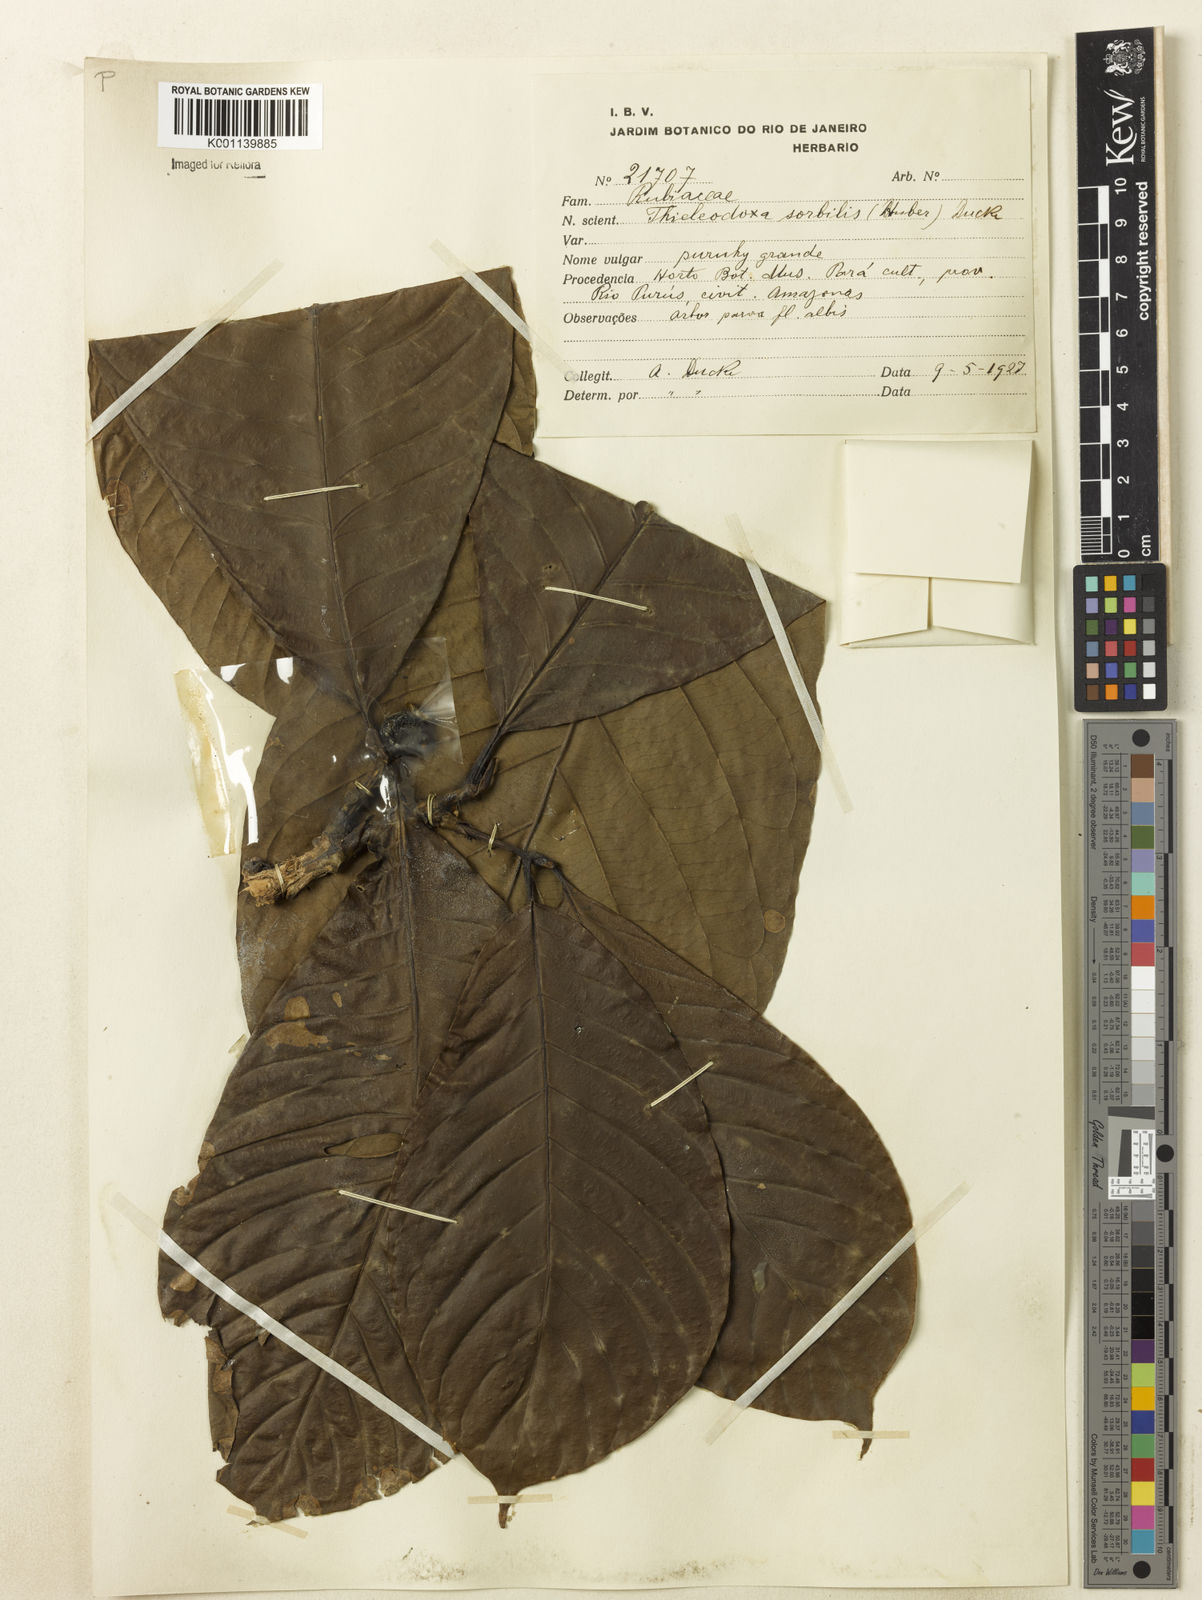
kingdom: Plantae
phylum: Tracheophyta
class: Magnoliopsida
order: Gentianales
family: Rubiaceae
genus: Alibertia
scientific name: Alibertia sorbilis
